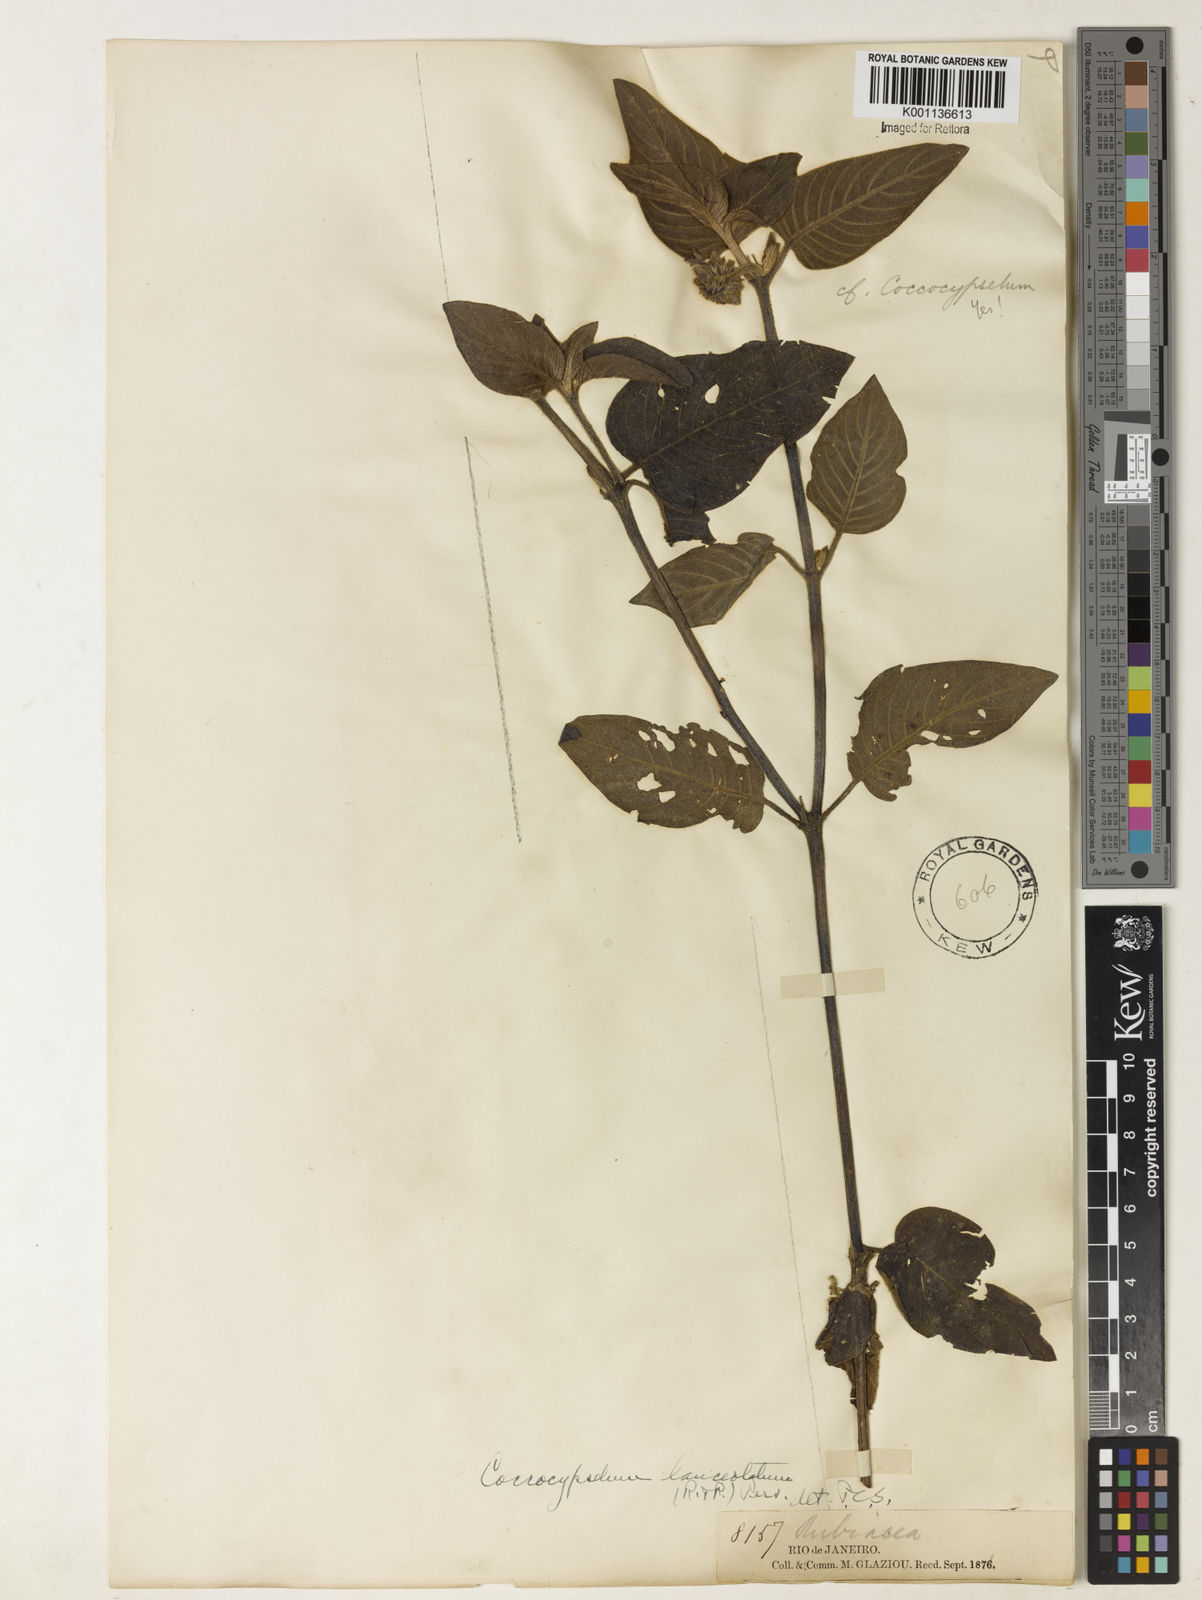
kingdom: Plantae
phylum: Tracheophyta
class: Magnoliopsida
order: Gentianales
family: Rubiaceae
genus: Coccocypselum
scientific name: Coccocypselum lanceolatum
